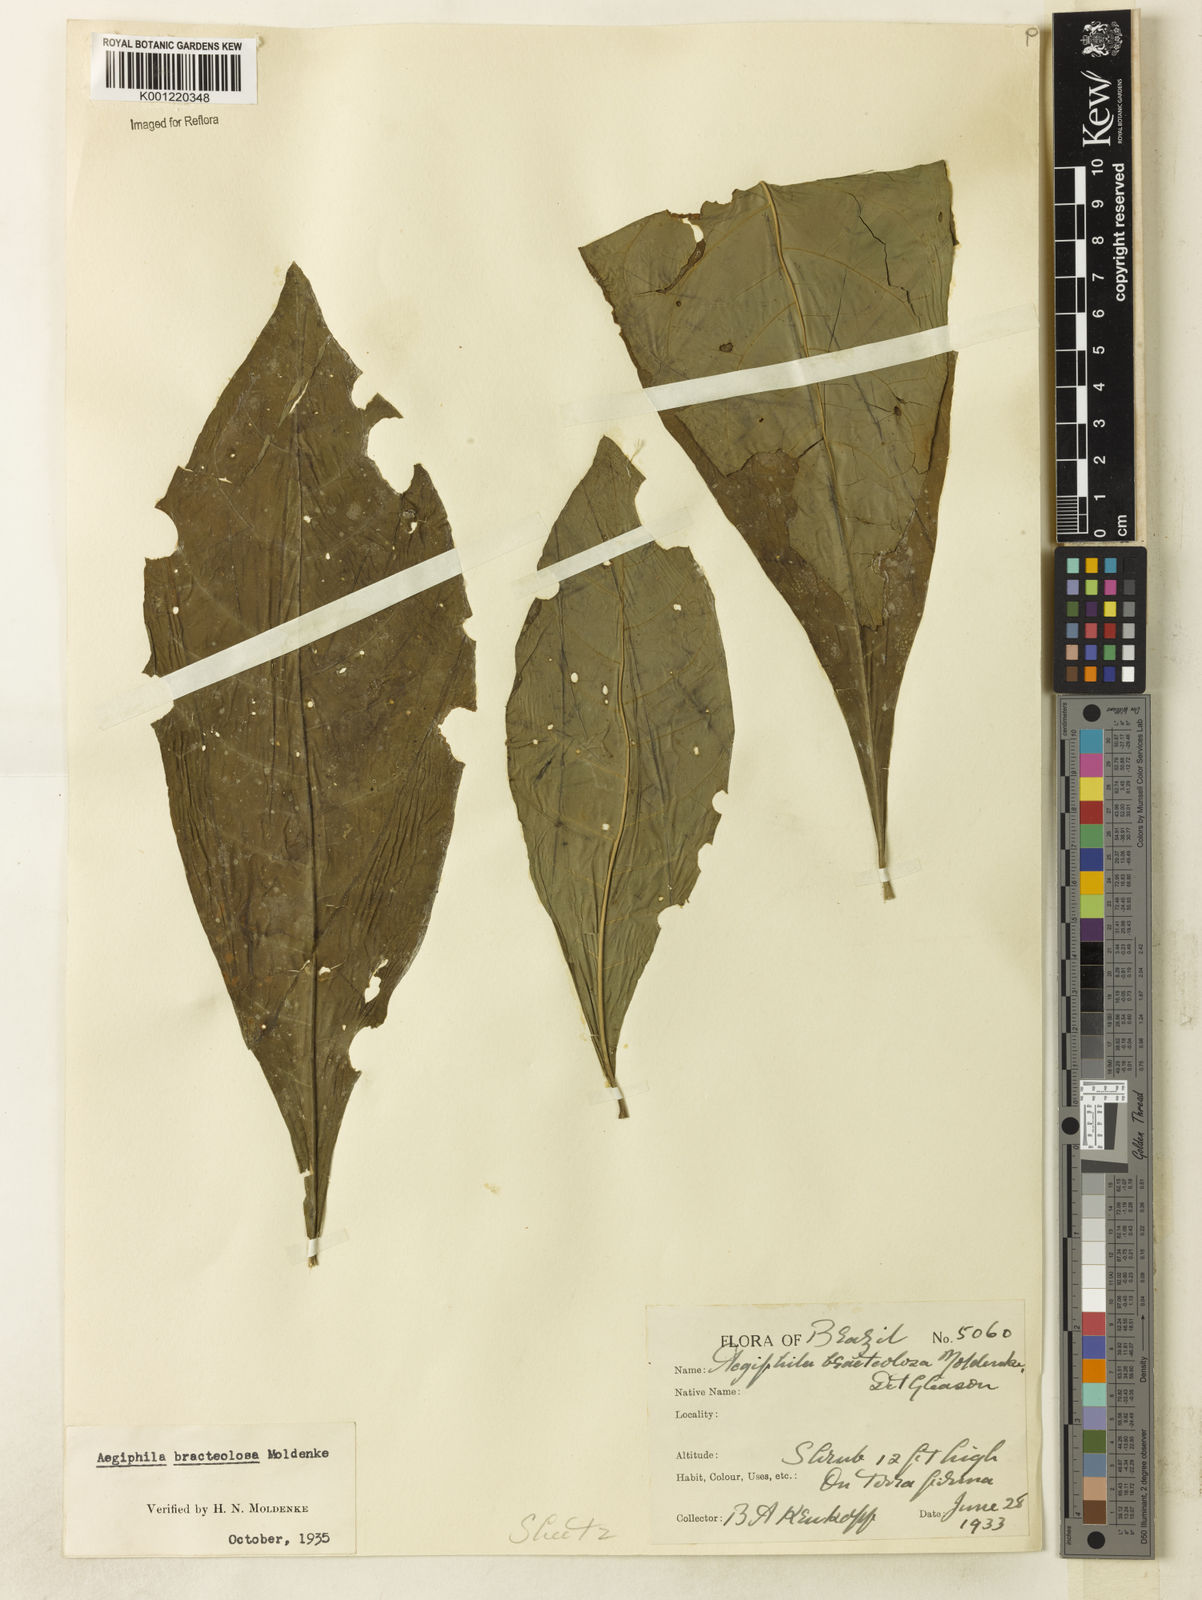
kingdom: Plantae
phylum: Tracheophyta
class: Magnoliopsida
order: Lamiales
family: Lamiaceae
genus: Aegiphila
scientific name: Aegiphila bracteolosa
